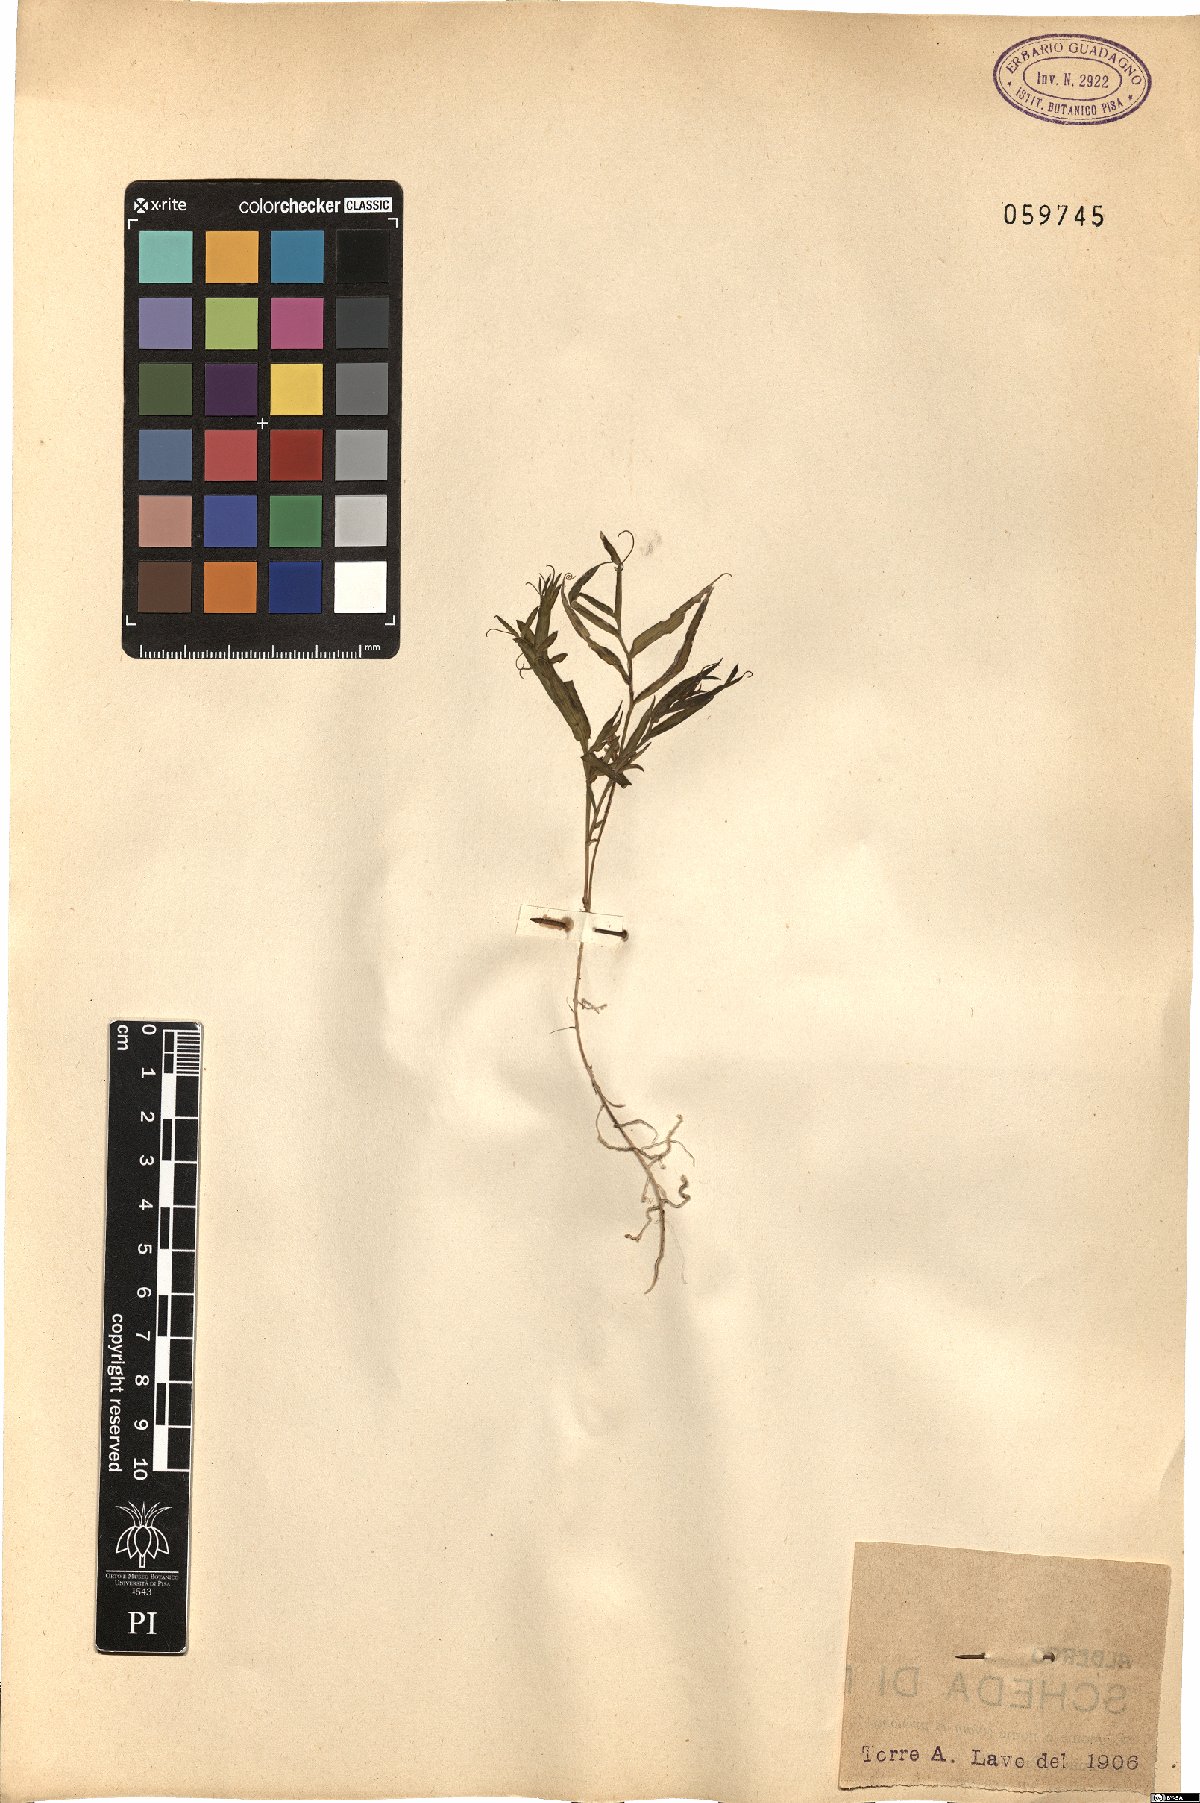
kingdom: Plantae
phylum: Tracheophyta
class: Magnoliopsida
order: Fabales
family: Fabaceae
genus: Lathyrus
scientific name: Lathyrus
